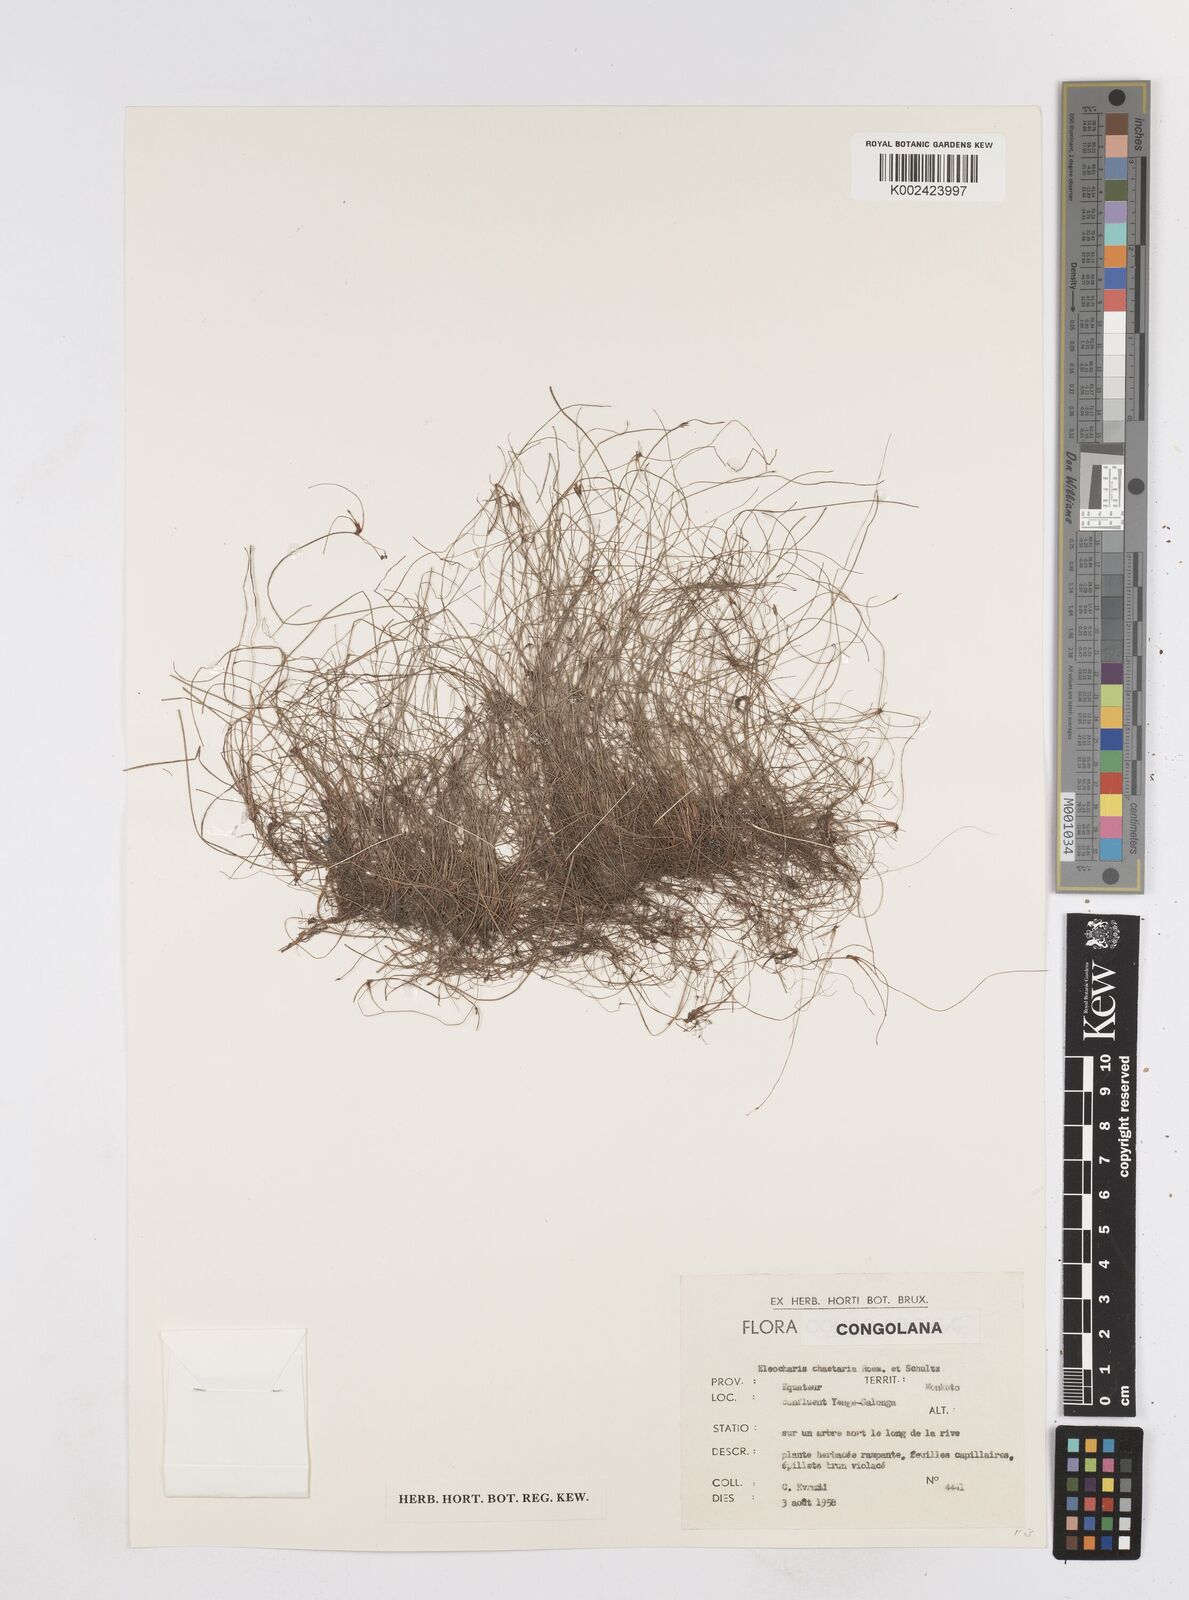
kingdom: Plantae
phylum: Tracheophyta
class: Liliopsida
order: Poales
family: Cyperaceae
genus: Eleocharis
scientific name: Eleocharis
